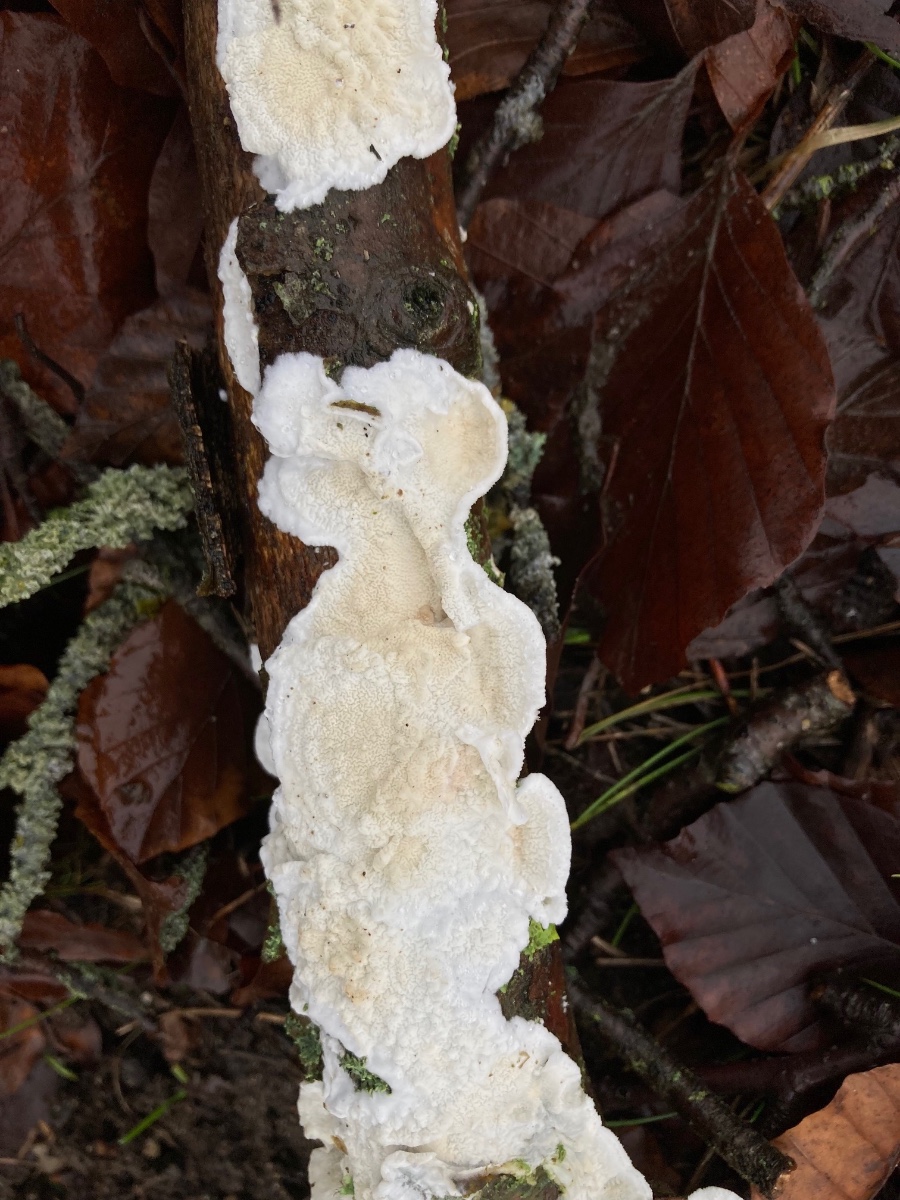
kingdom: Fungi
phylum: Basidiomycota
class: Agaricomycetes
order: Polyporales
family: Irpicaceae
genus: Byssomerulius
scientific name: Byssomerulius corium
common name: læder-åresvamp
